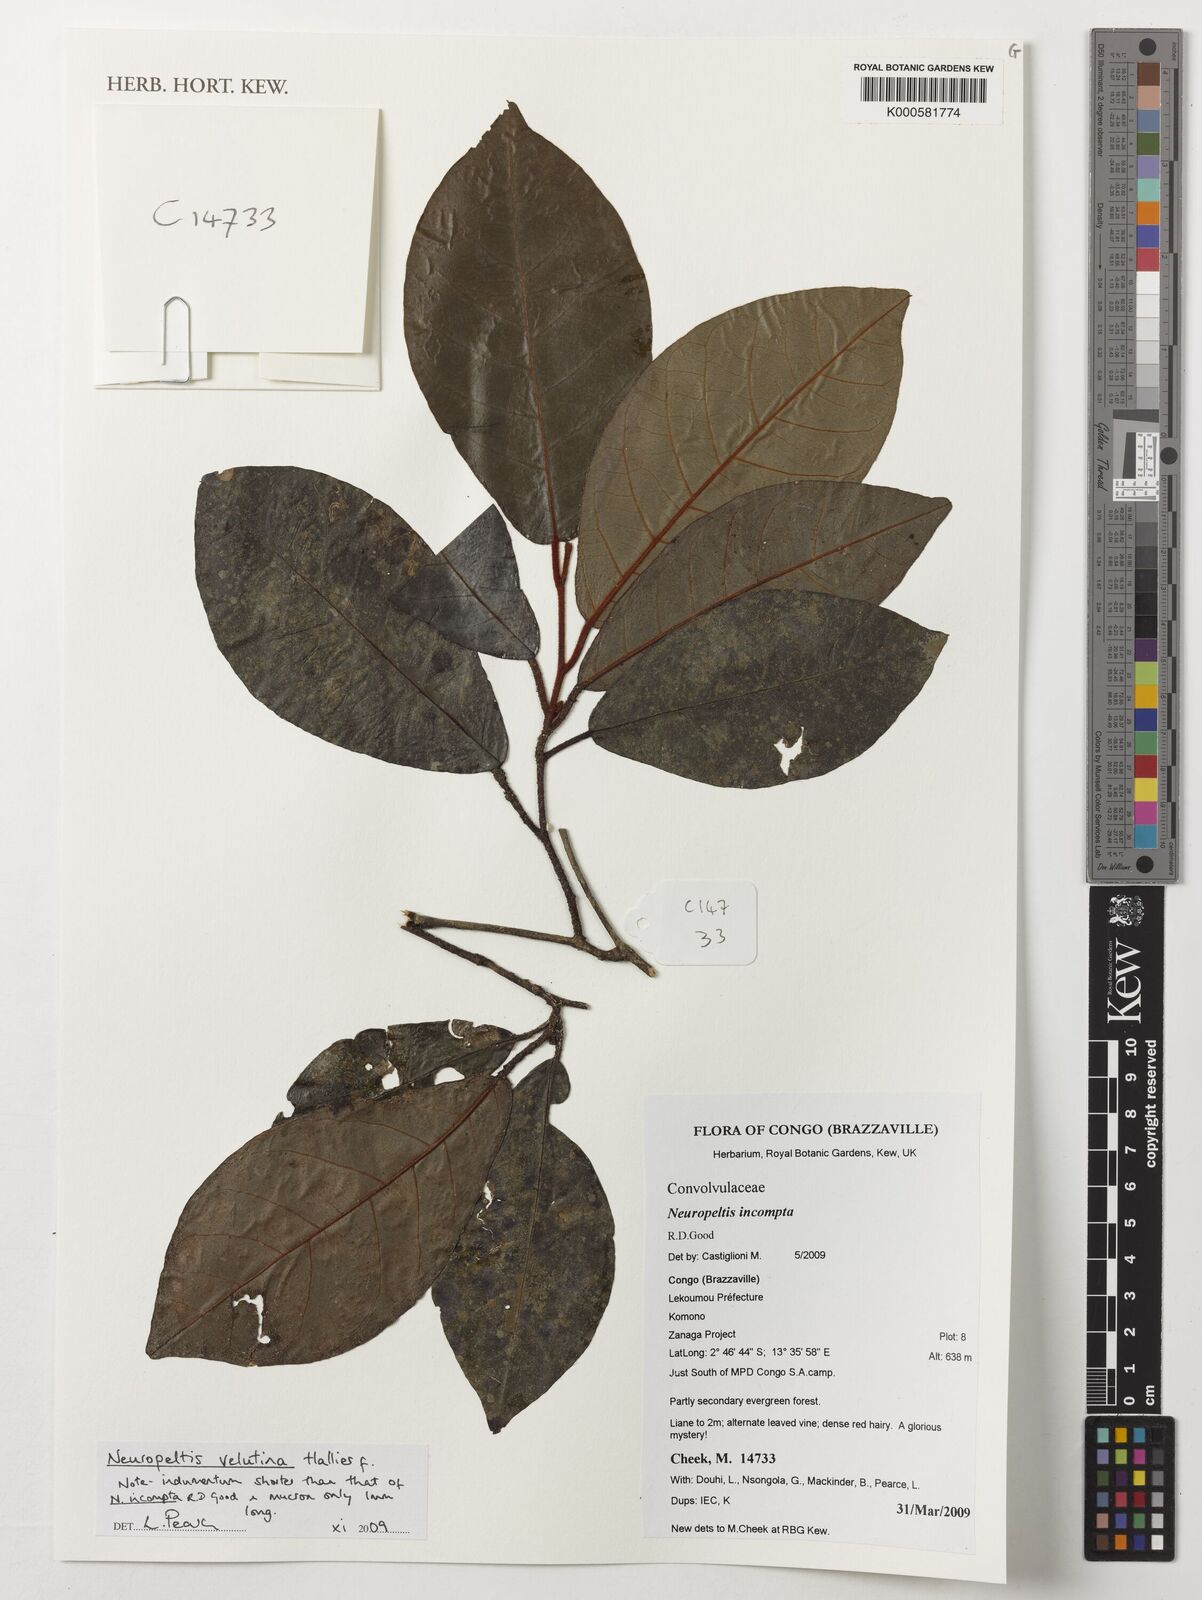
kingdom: Plantae
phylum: Tracheophyta
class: Magnoliopsida
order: Solanales
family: Convolvulaceae
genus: Neuropeltis
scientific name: Neuropeltis velutina
